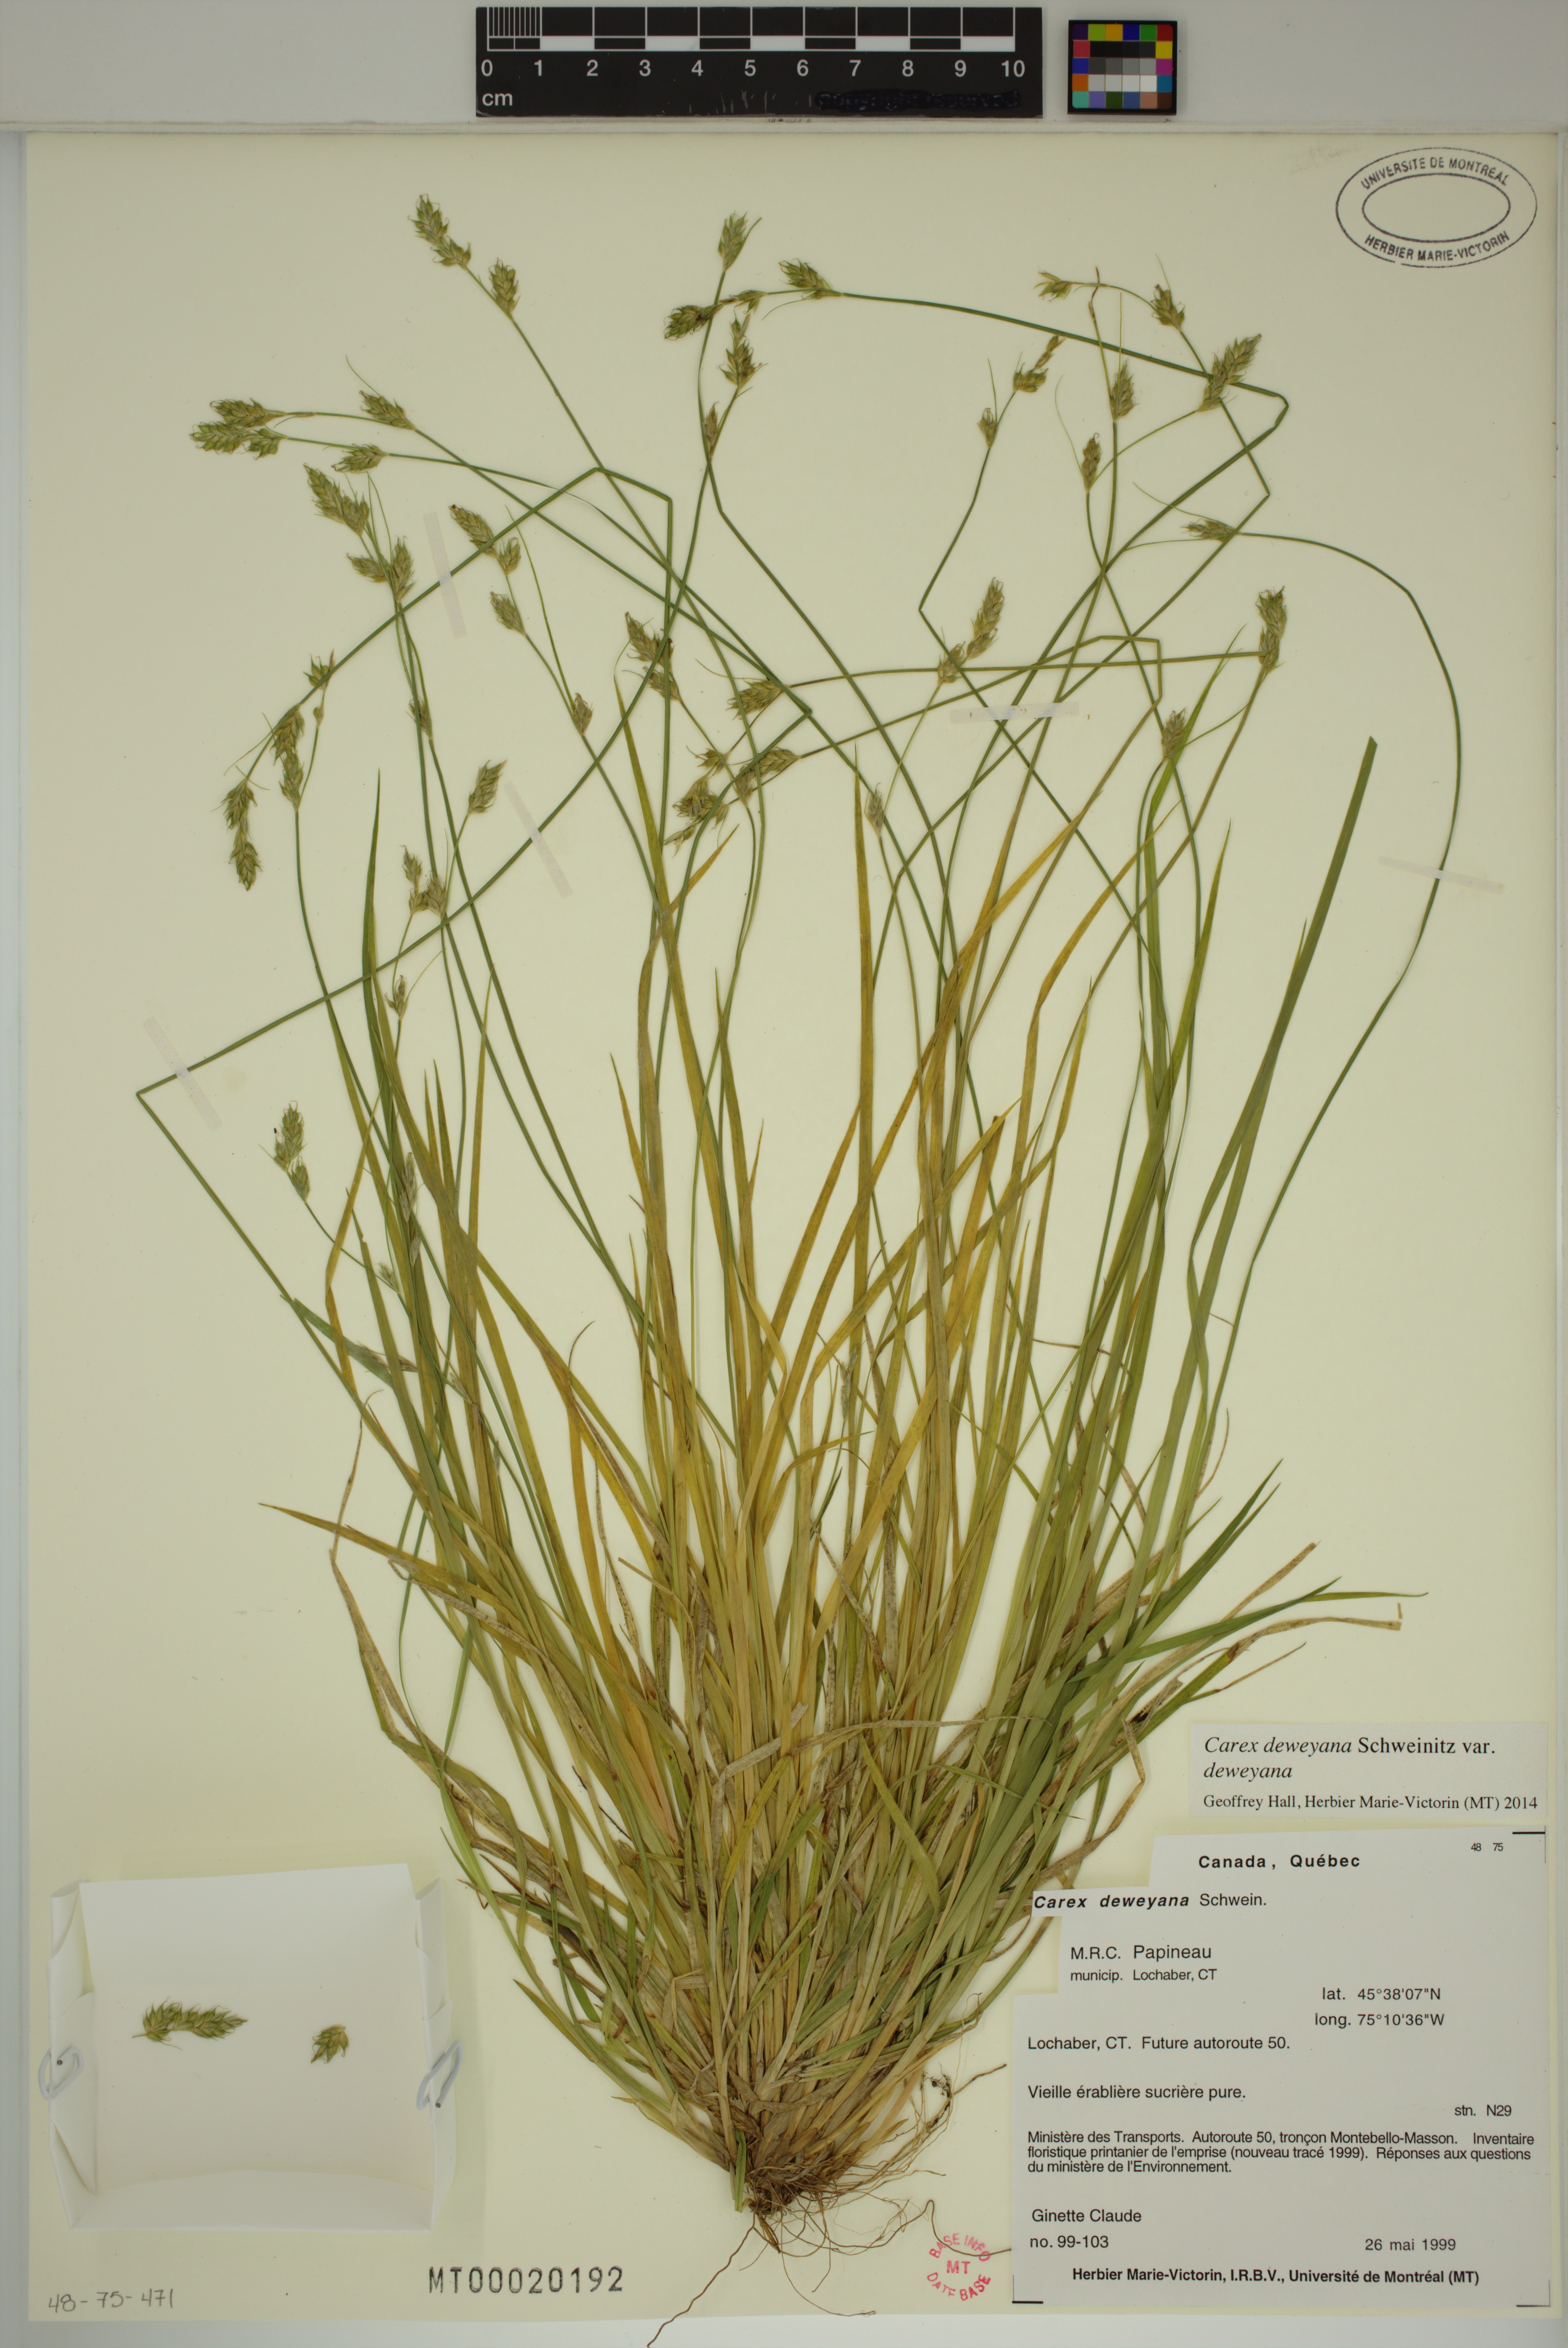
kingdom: Plantae
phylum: Tracheophyta
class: Liliopsida
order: Poales
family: Cyperaceae
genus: Carex
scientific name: Carex deweyana
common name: Dewey's sedge
